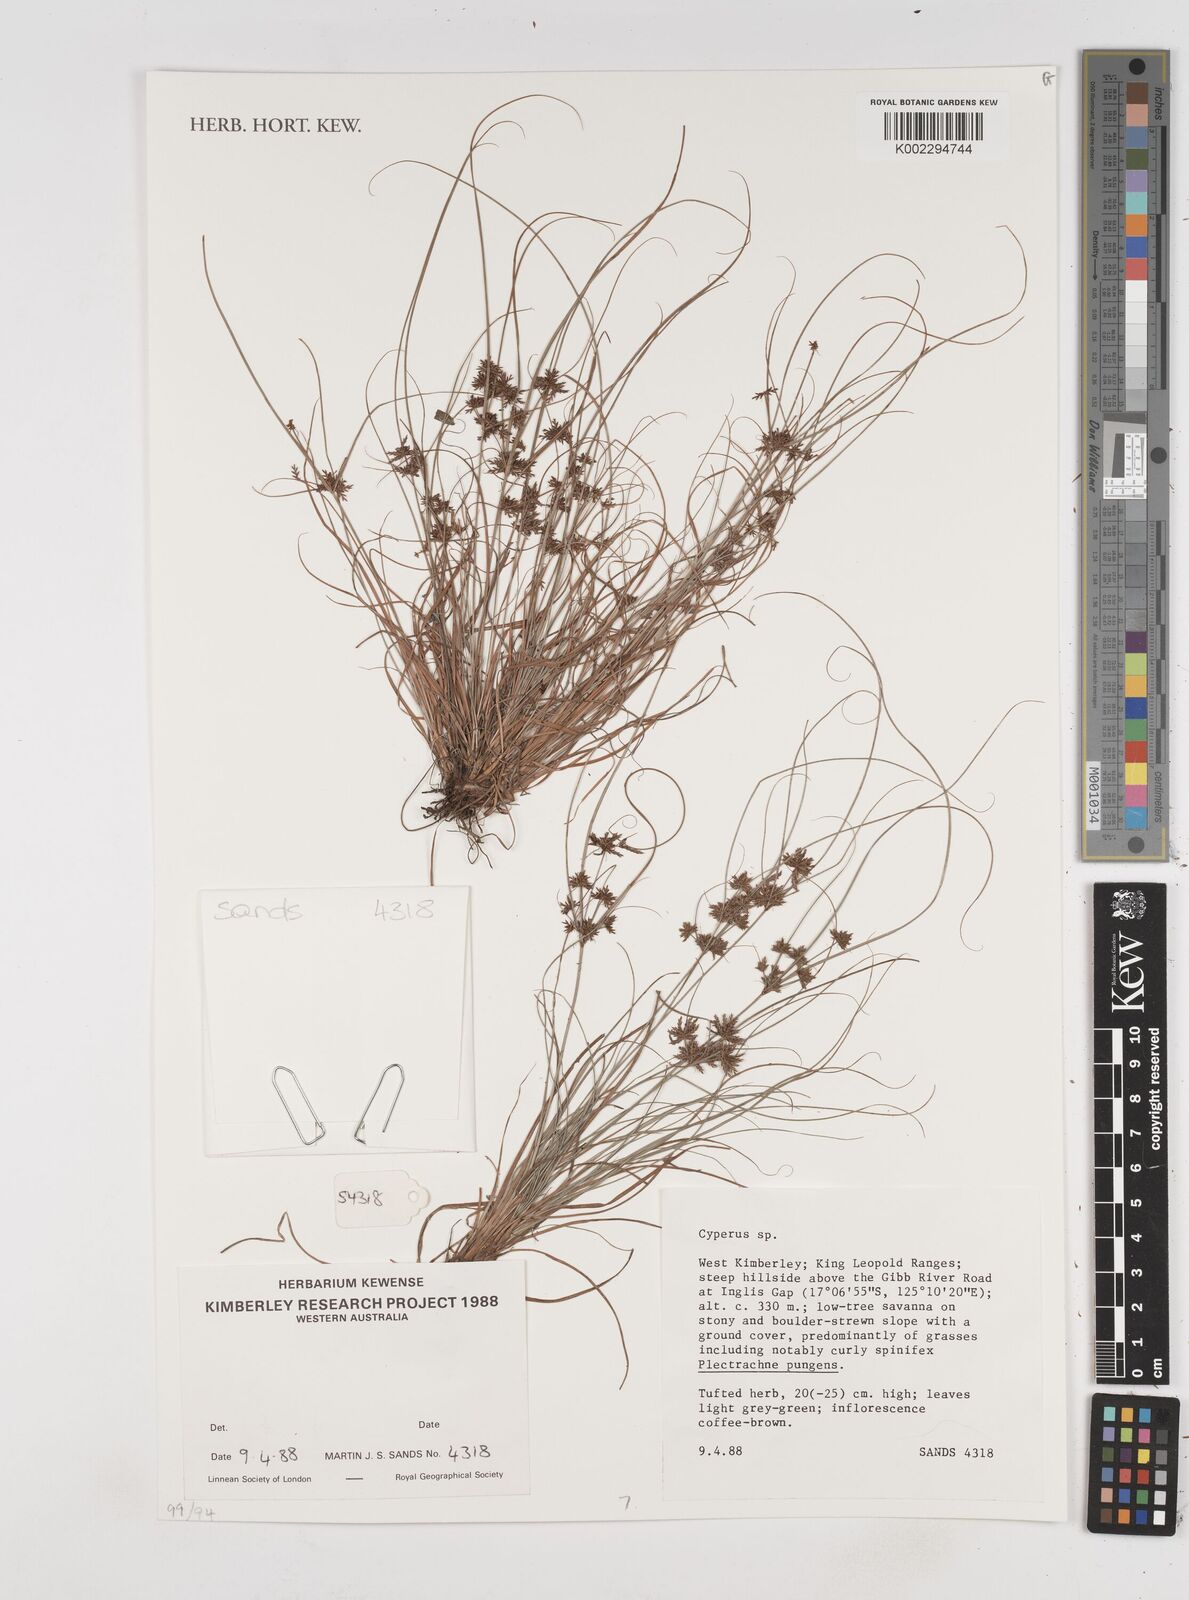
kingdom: Plantae
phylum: Tracheophyta
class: Liliopsida
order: Poales
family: Cyperaceae
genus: Cyperus
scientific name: Cyperus
